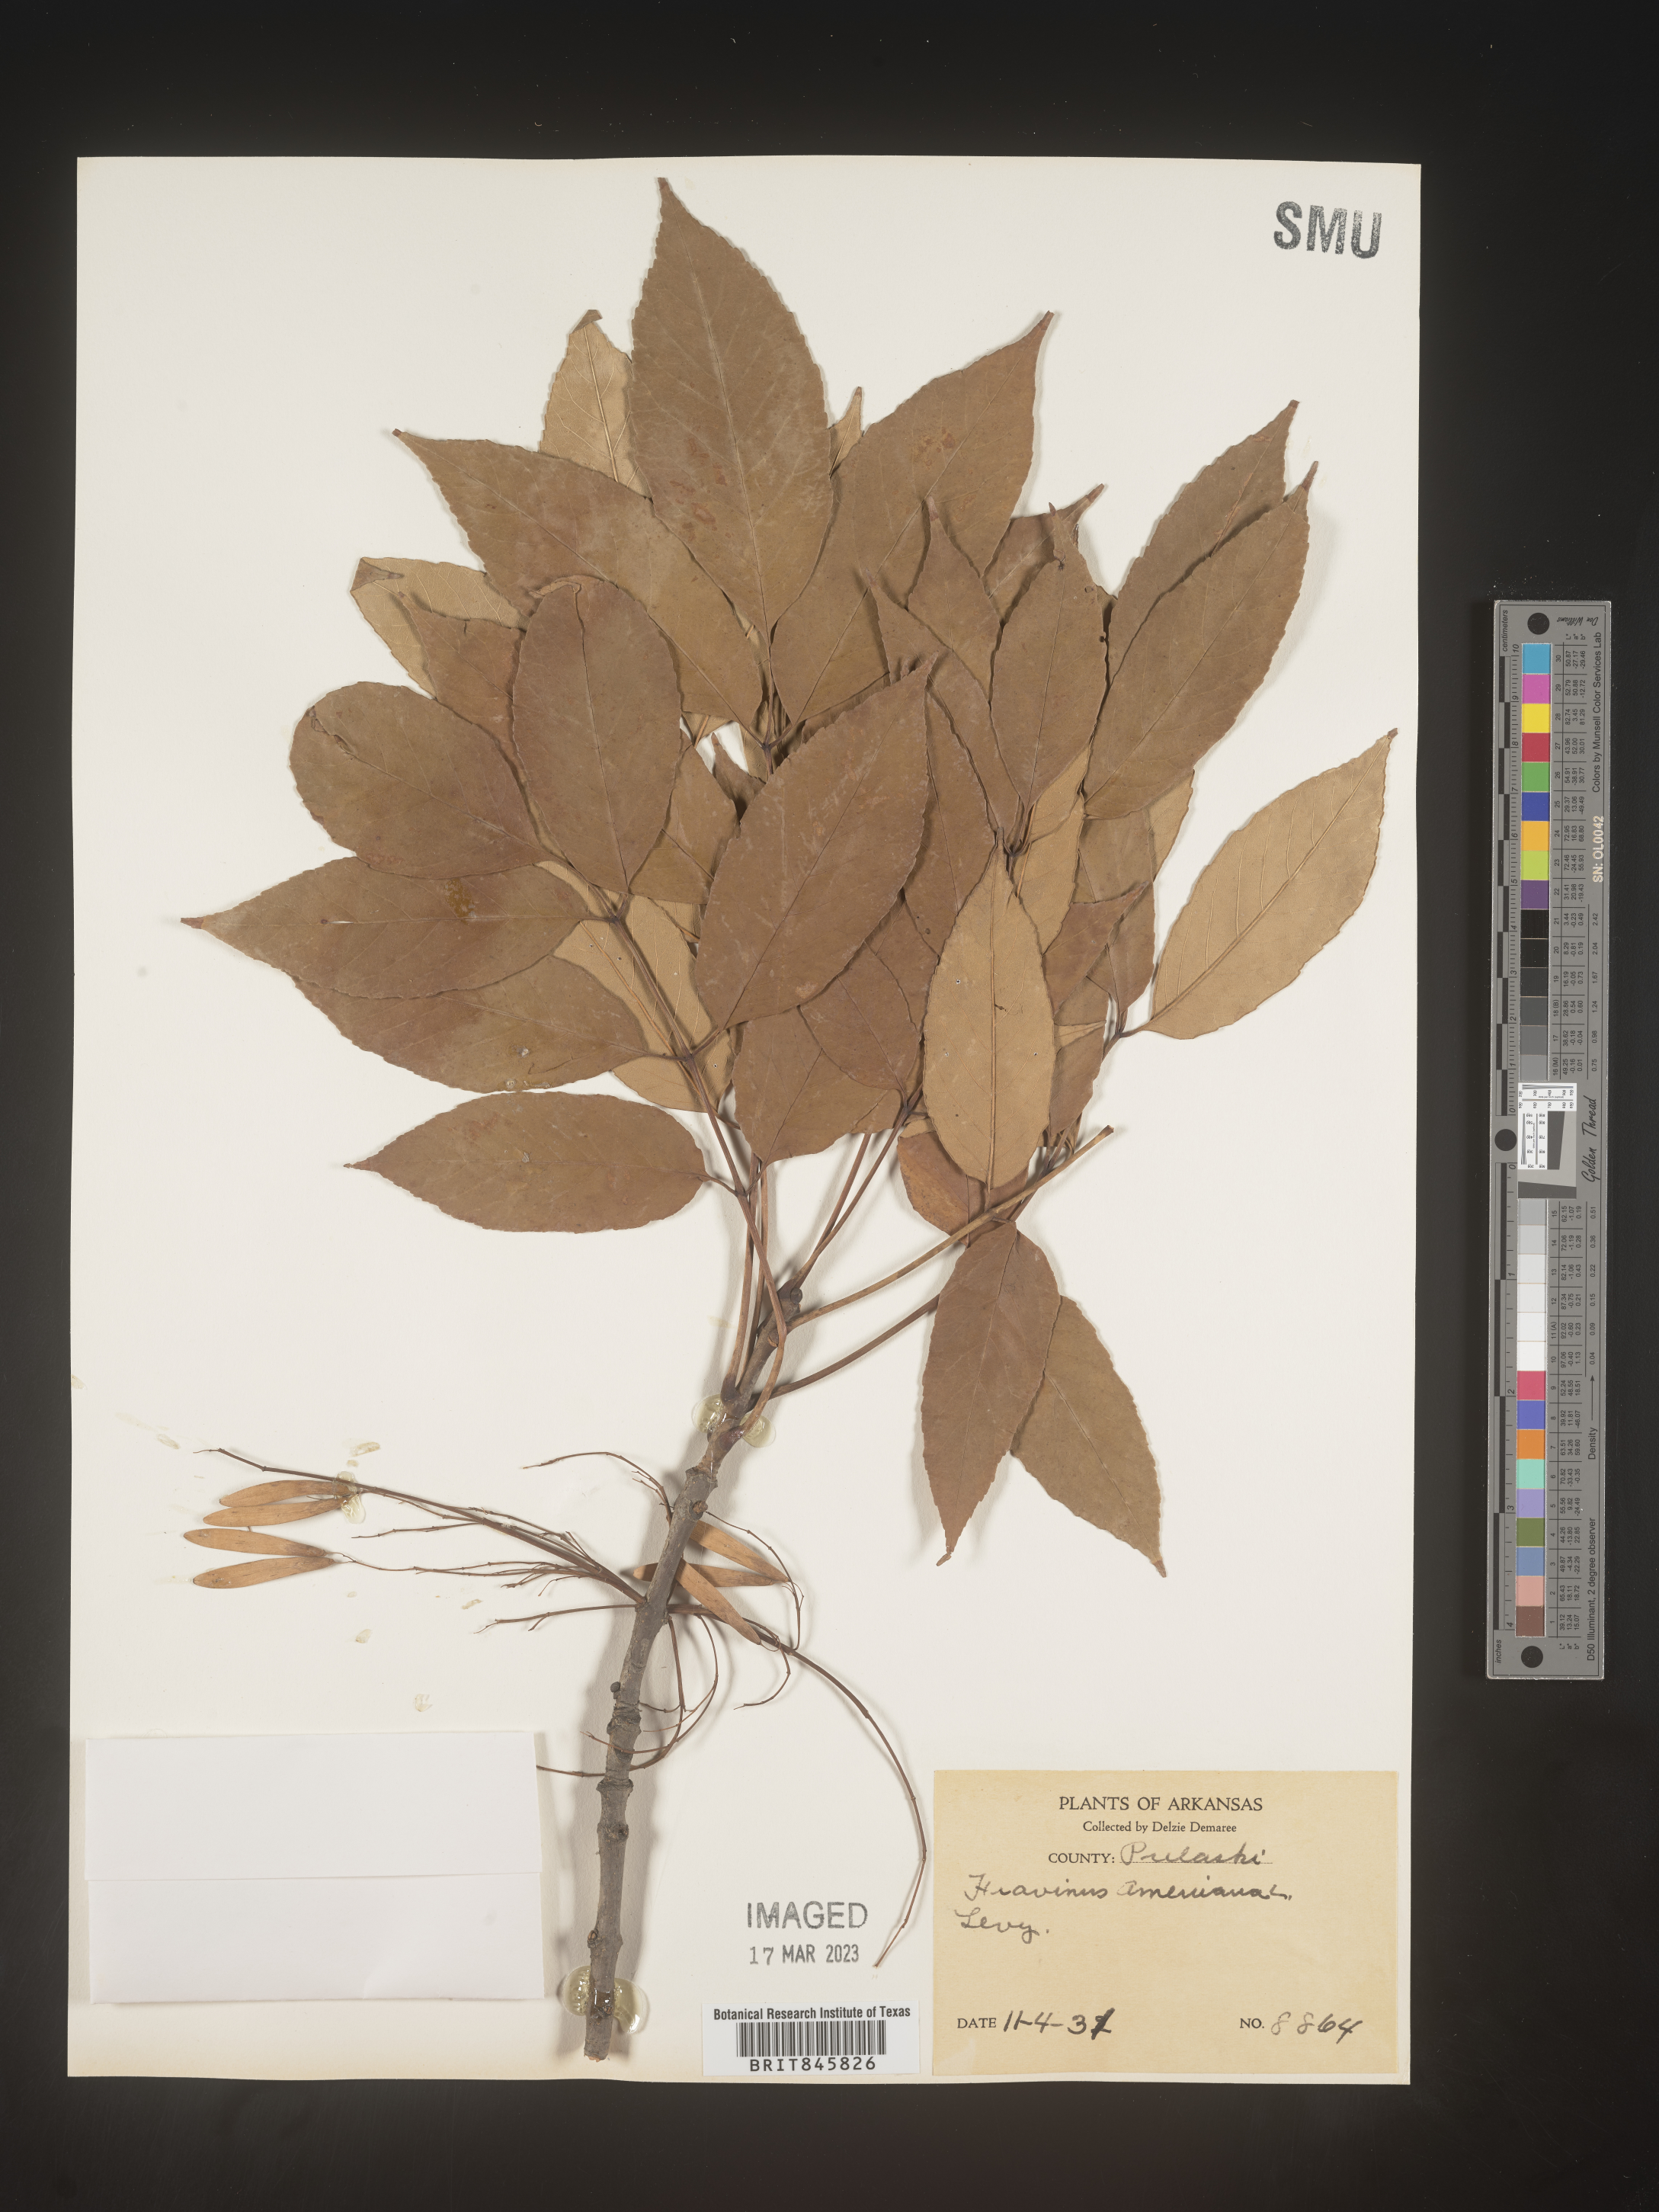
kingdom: Plantae
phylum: Tracheophyta
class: Magnoliopsida
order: Lamiales
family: Oleaceae
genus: Fraxinus
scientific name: Fraxinus americana
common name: White ash
